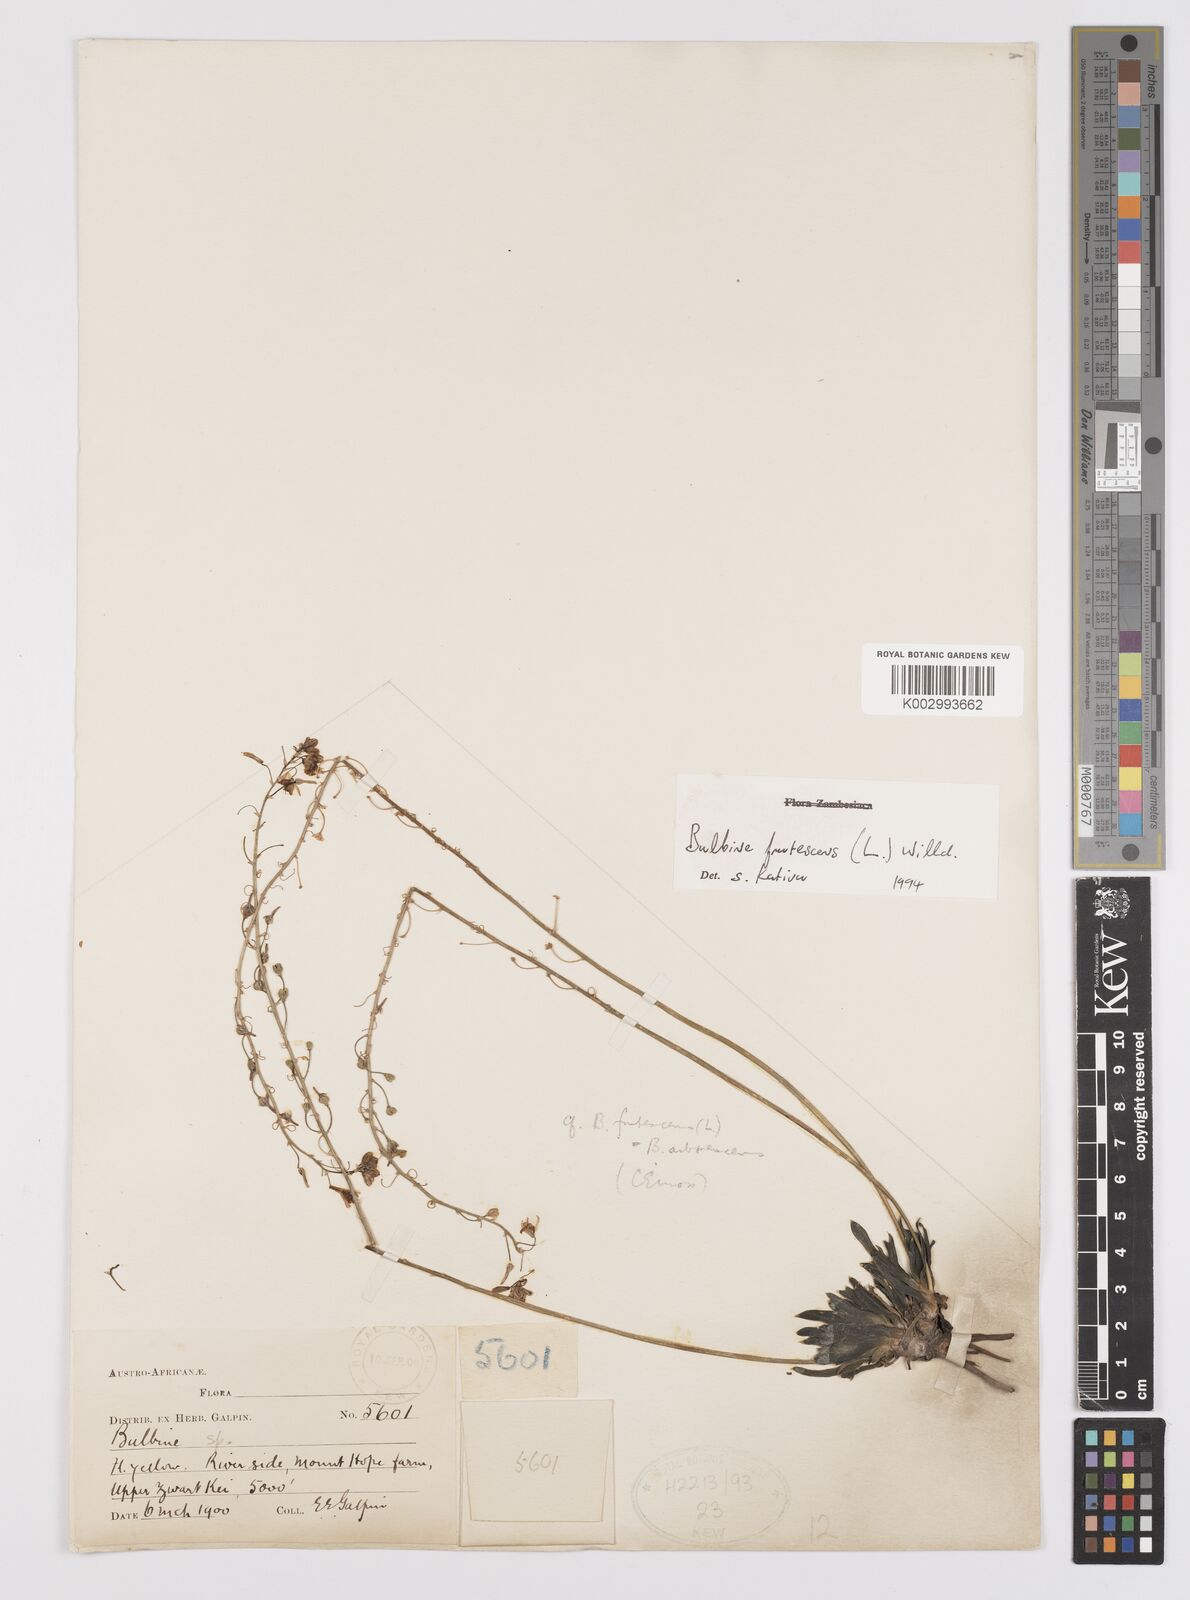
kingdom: Plantae
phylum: Tracheophyta
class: Liliopsida
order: Asparagales
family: Asphodelaceae
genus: Bulbine
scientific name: Bulbine frutescens
